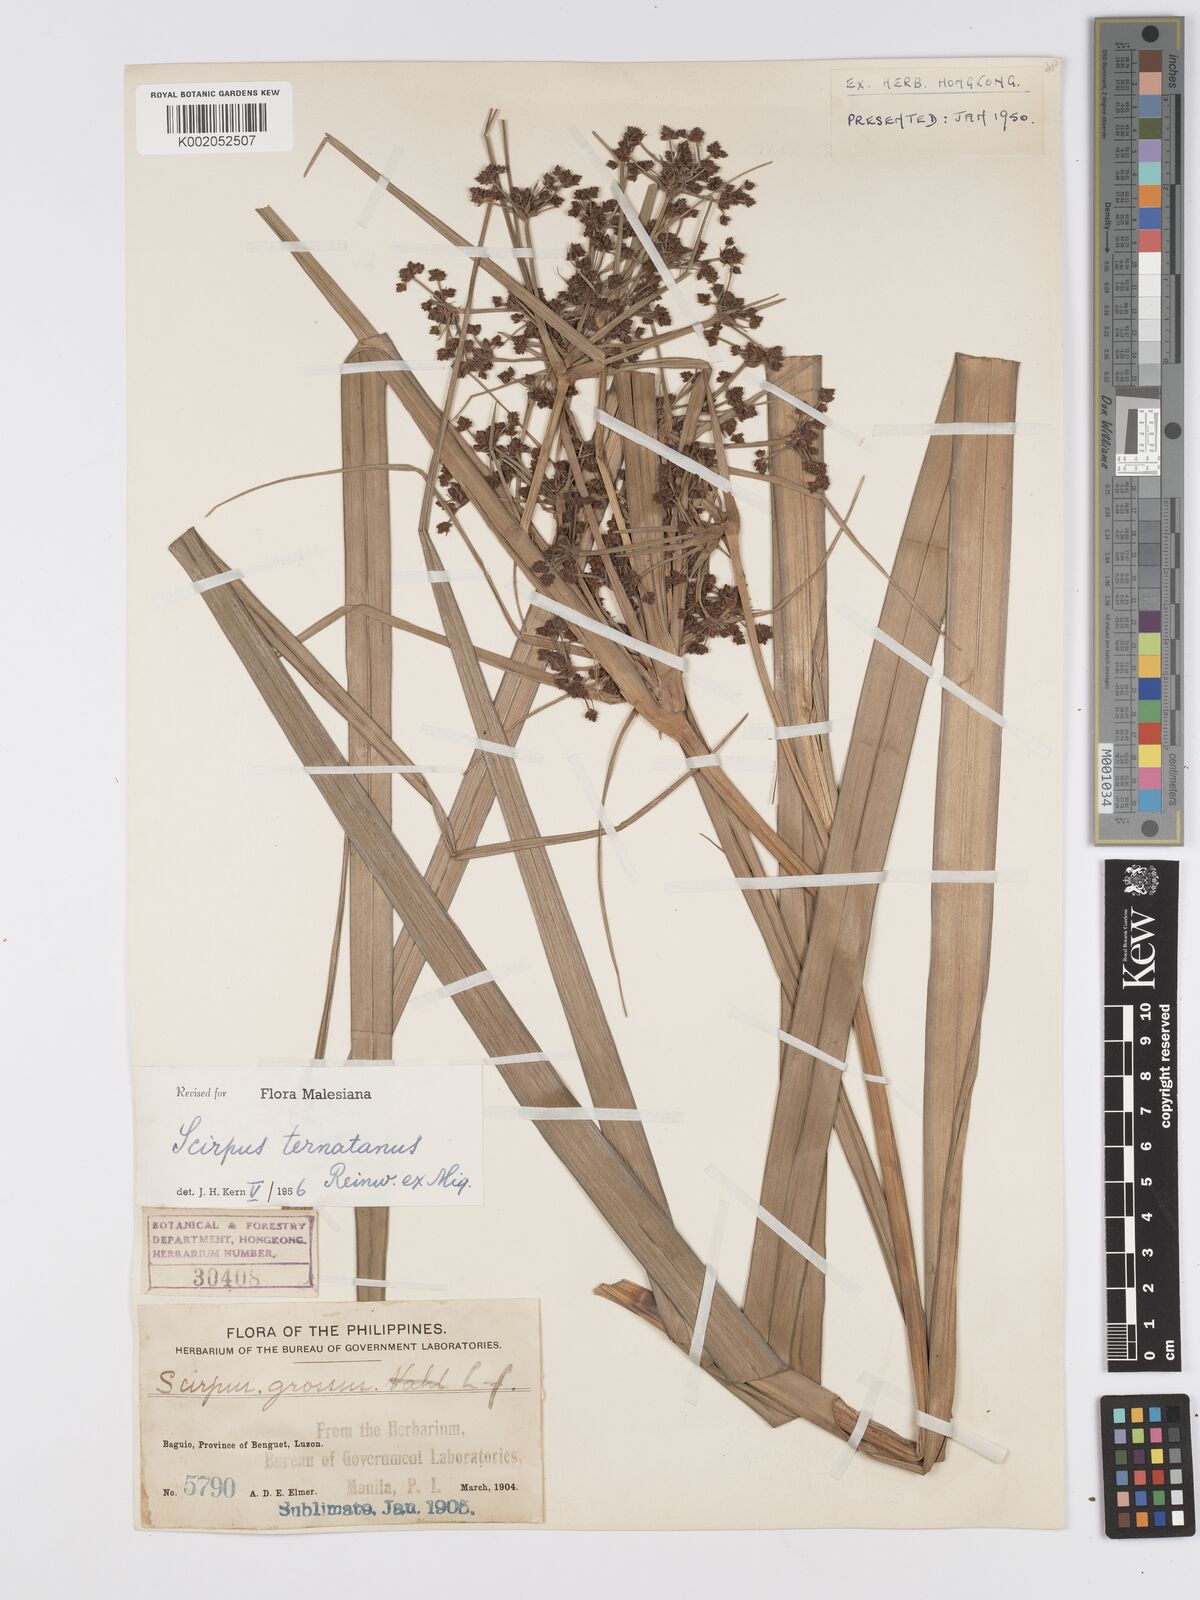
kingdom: Plantae
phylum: Tracheophyta
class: Liliopsida
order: Poales
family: Cyperaceae
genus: Scirpus
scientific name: Scirpus ternatanus
